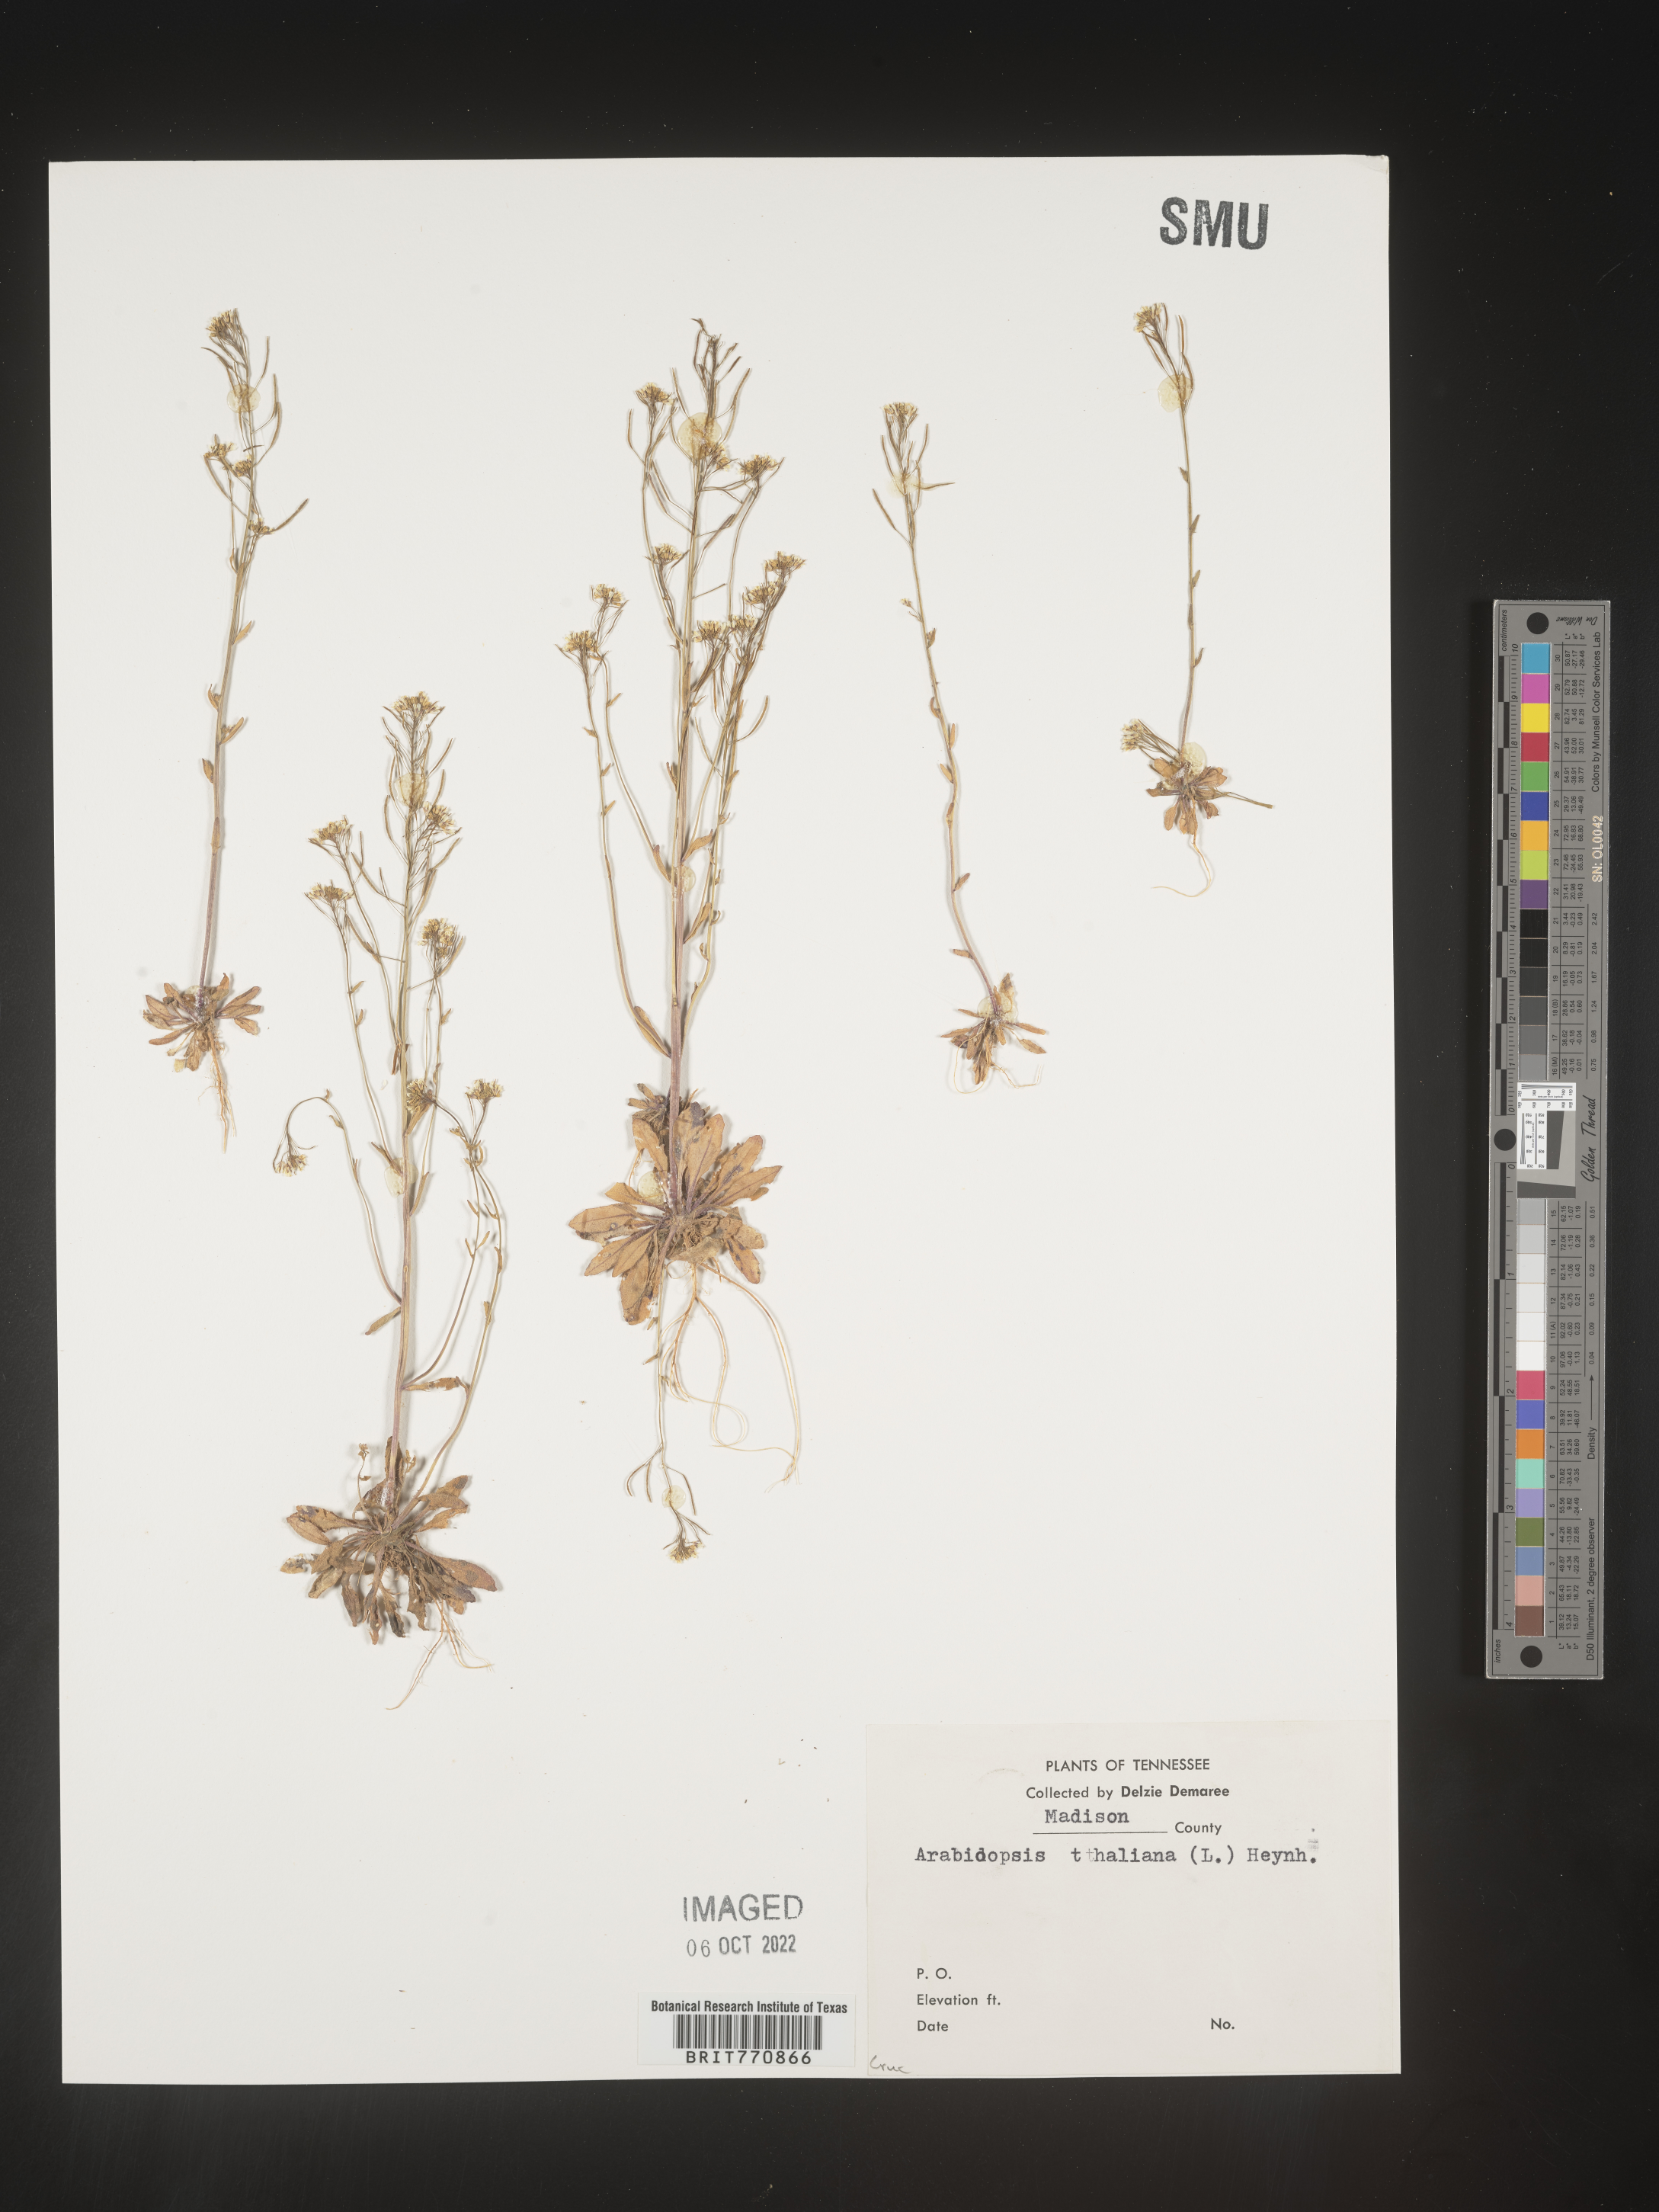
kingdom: Plantae
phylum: Tracheophyta
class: Magnoliopsida
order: Brassicales
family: Brassicaceae
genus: Arabidopsis
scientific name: Arabidopsis thaliana
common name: Thale cress
